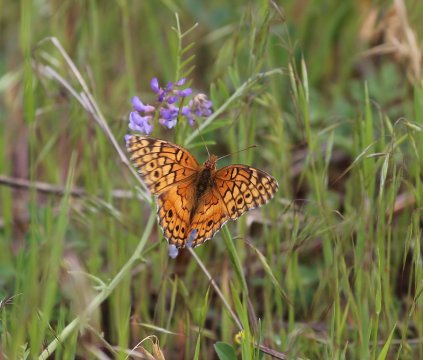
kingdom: Animalia
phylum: Arthropoda
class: Insecta
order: Lepidoptera
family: Nymphalidae
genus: Euptoieta
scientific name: Euptoieta claudia
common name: Variegated Fritillary
